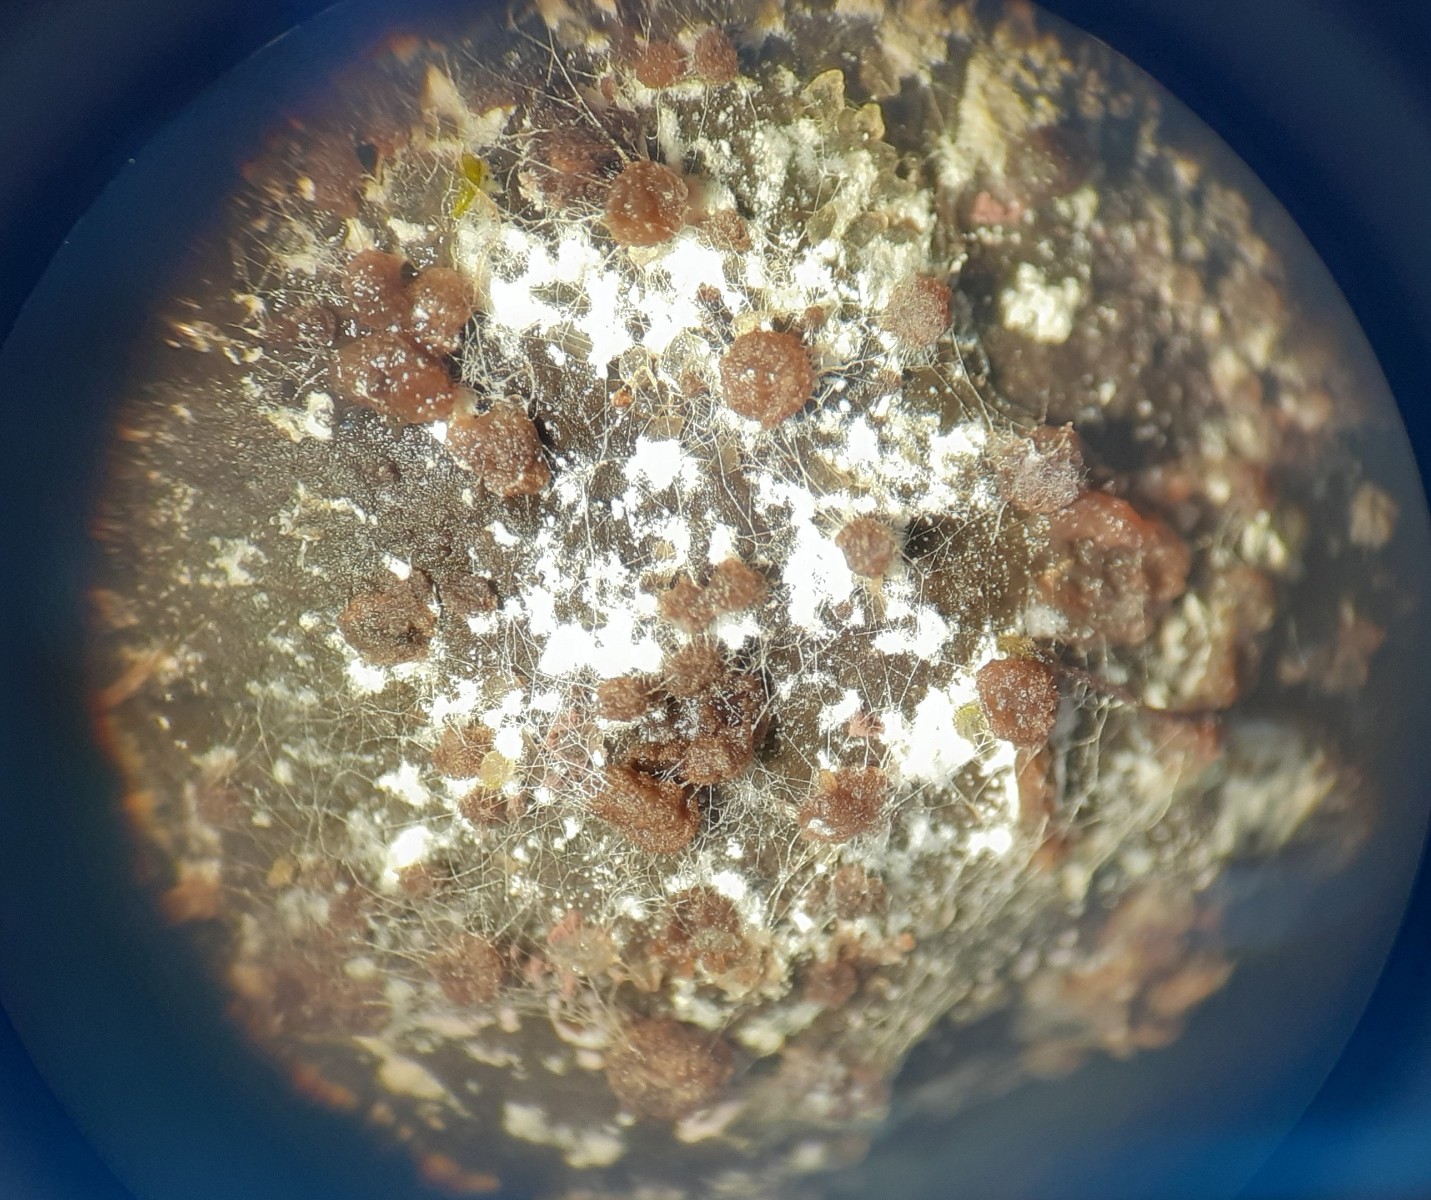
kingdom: Fungi
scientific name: Fungi
